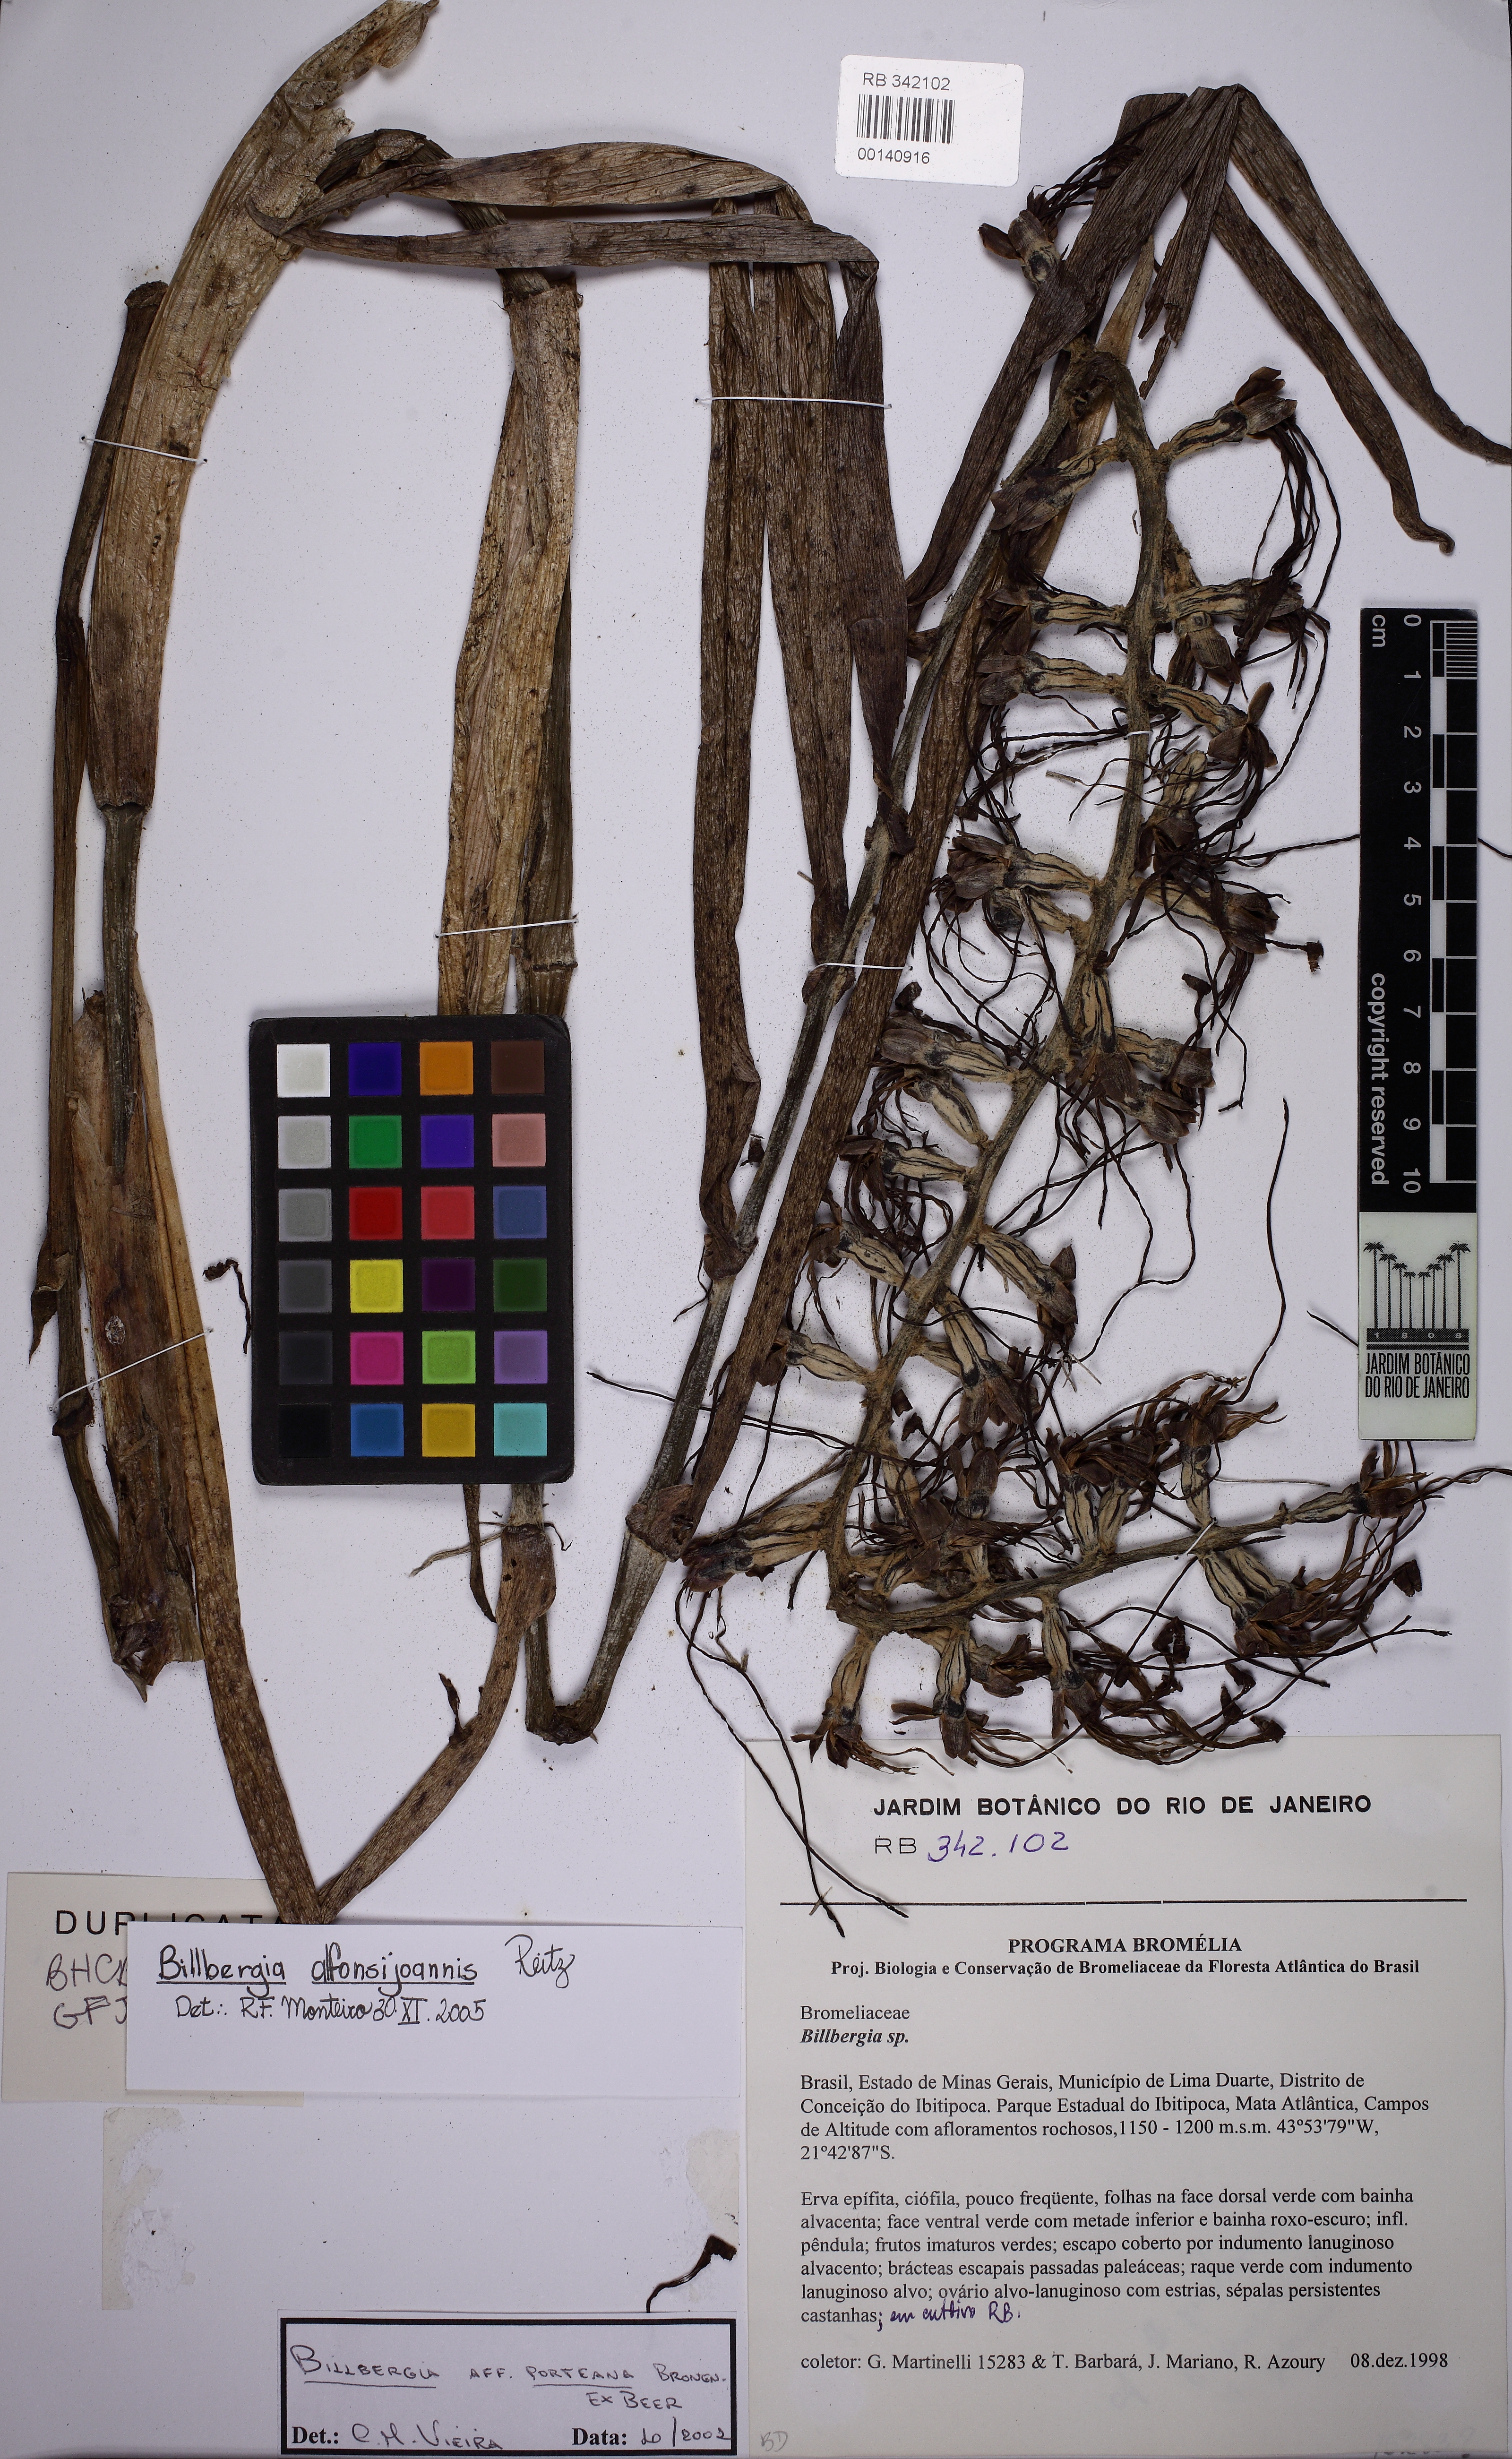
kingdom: Plantae
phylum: Tracheophyta
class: Liliopsida
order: Poales
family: Bromeliaceae
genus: Billbergia
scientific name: Billbergia porteana
